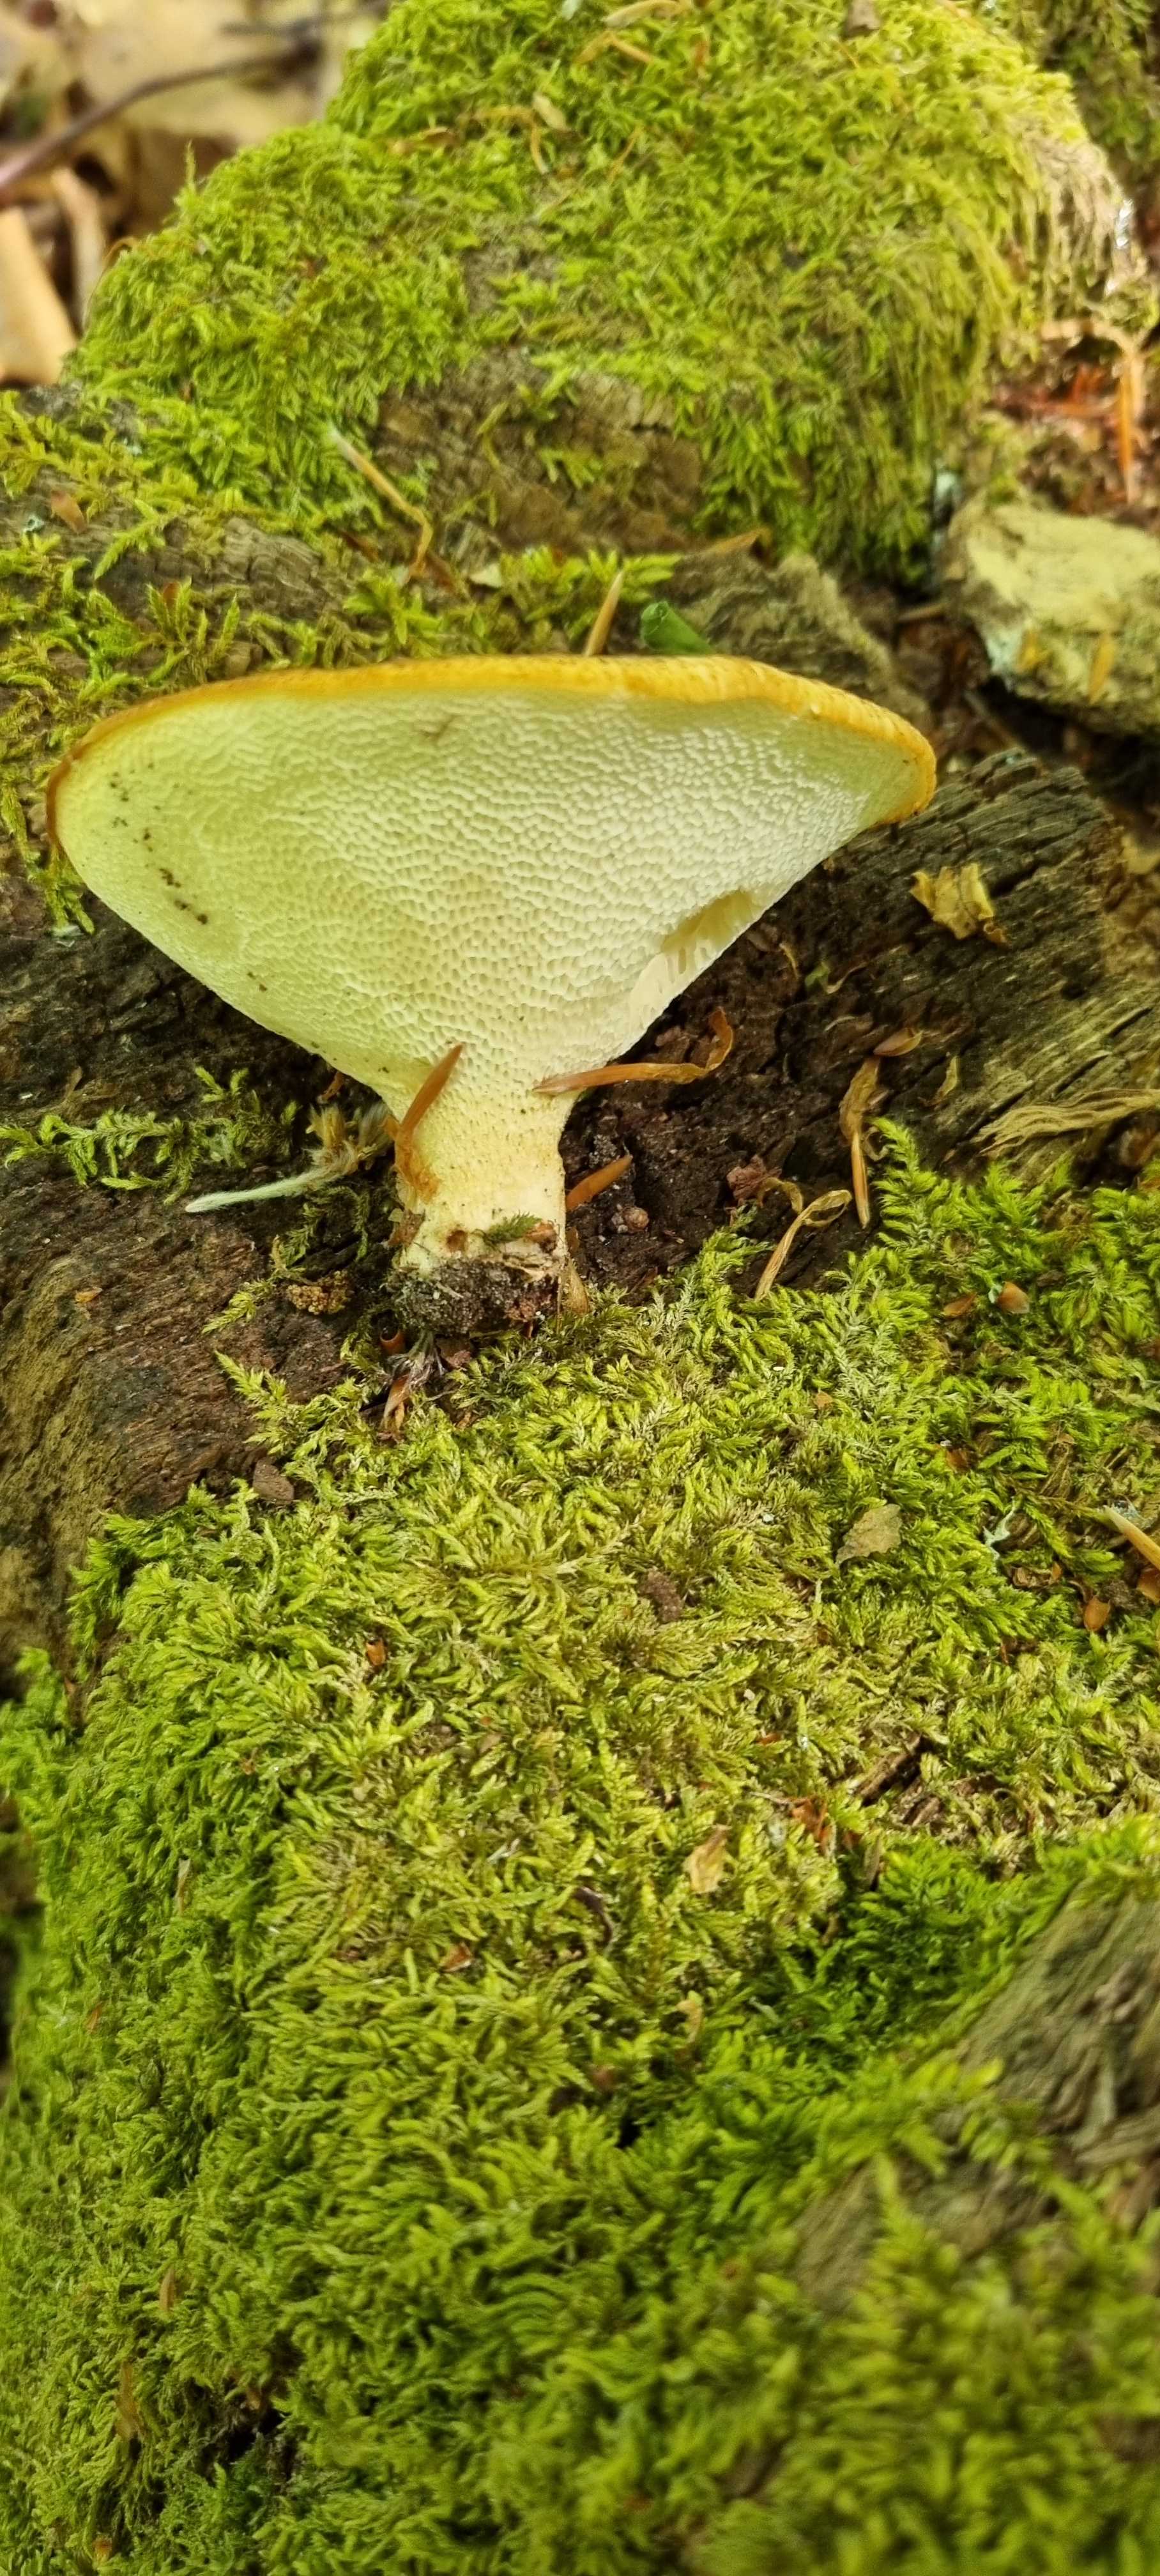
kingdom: Fungi
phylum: Basidiomycota
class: Agaricomycetes
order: Polyporales
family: Polyporaceae
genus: Cerioporus
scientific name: Cerioporus squamosus
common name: skællet stilkporesvamp
